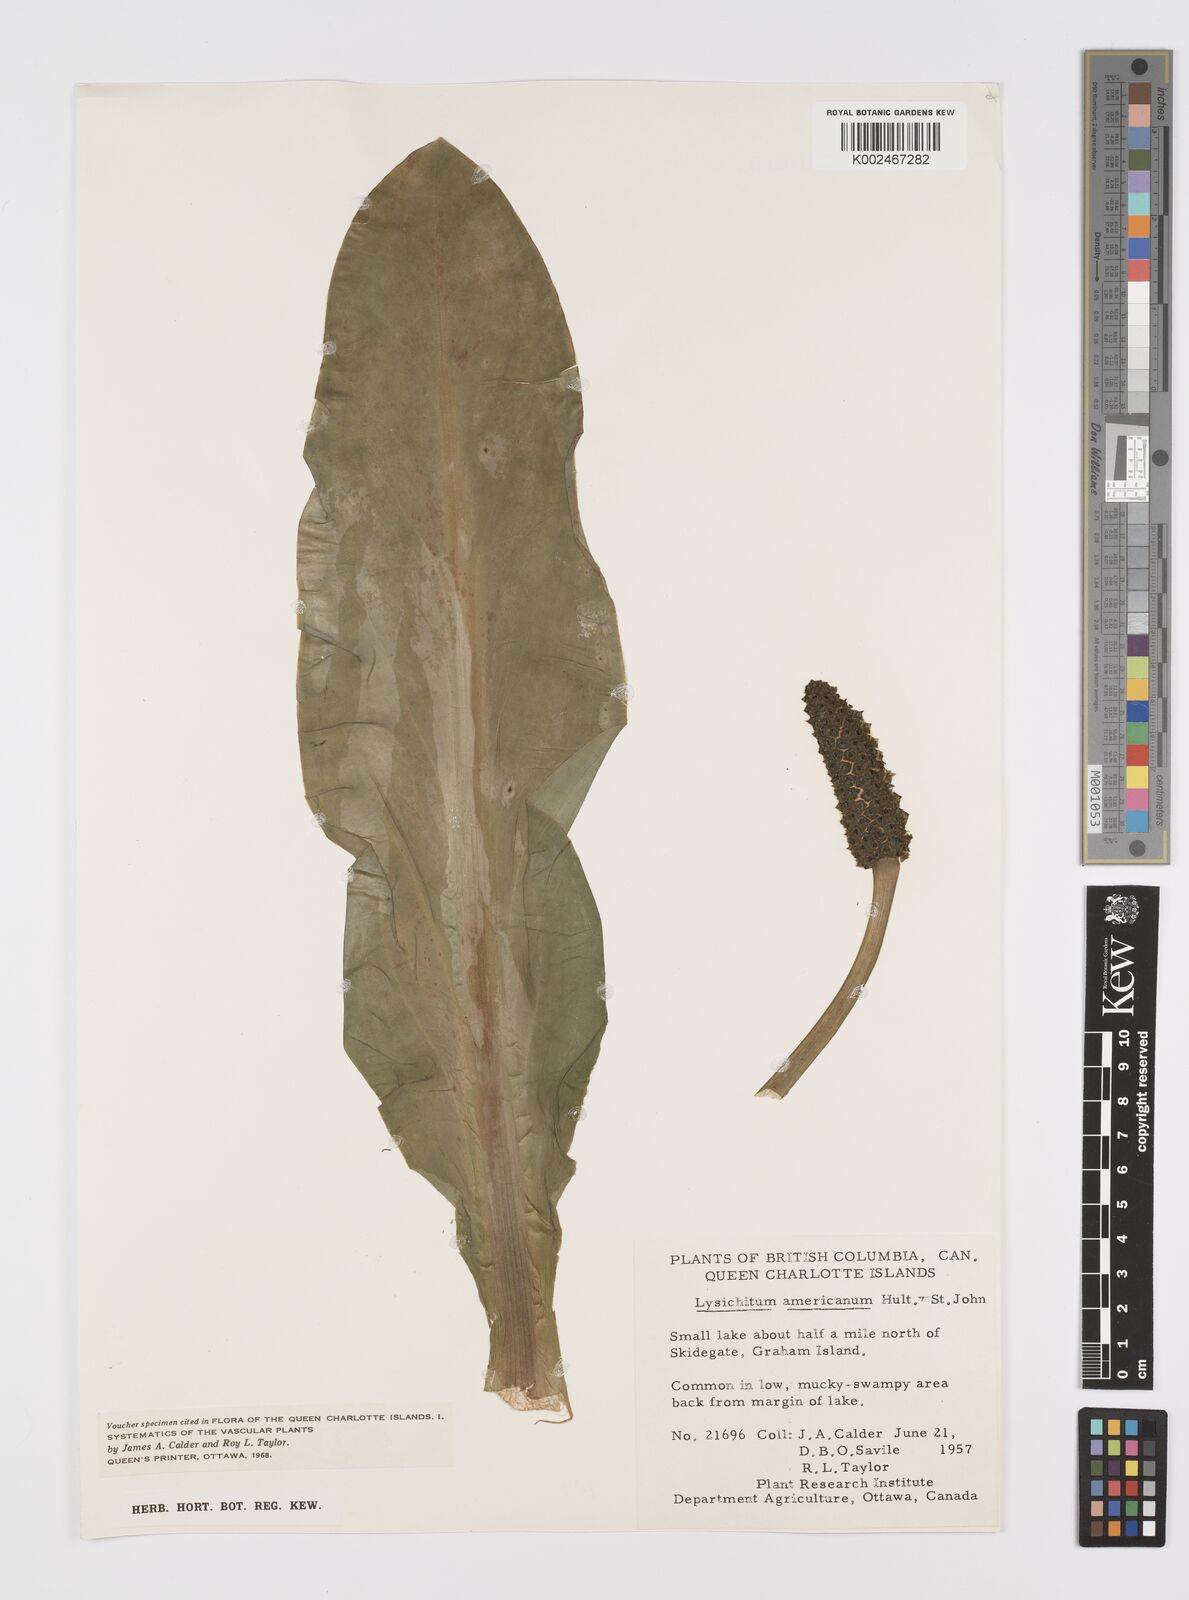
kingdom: Plantae
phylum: Tracheophyta
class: Liliopsida
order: Alismatales
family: Araceae
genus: Lysichiton
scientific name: Lysichiton americanus
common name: American skunk cabbage
